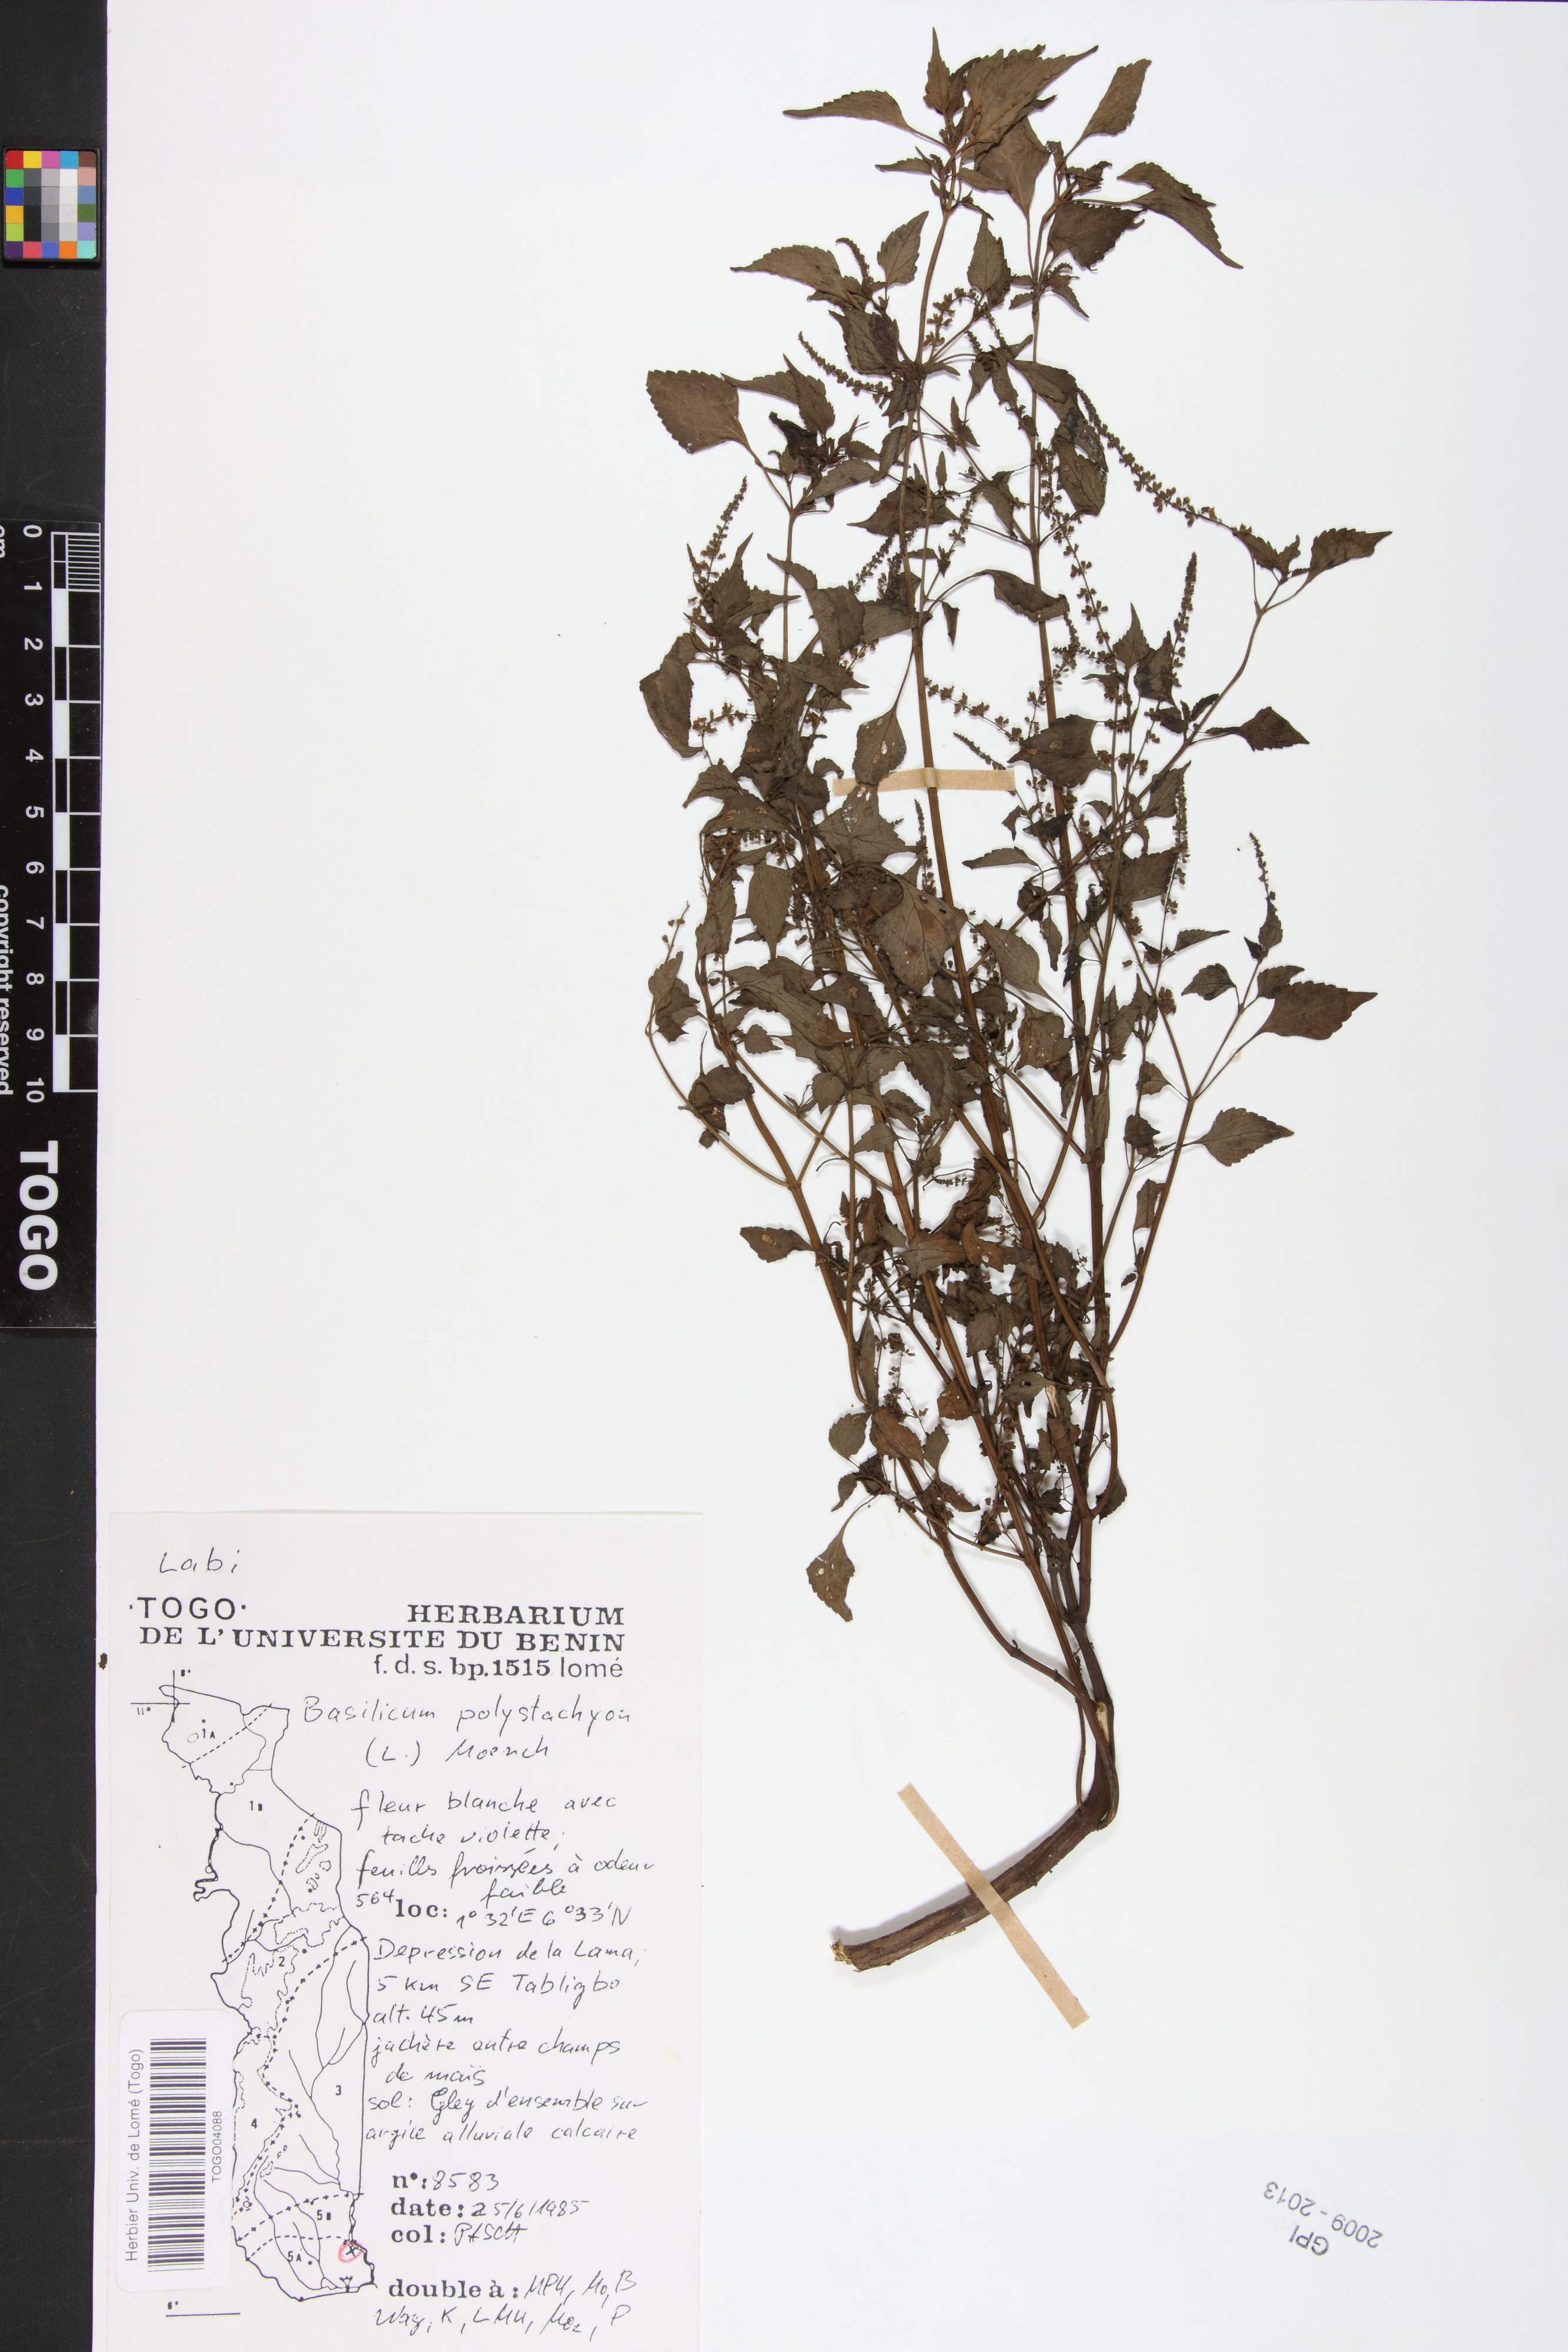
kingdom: Plantae
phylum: Tracheophyta
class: Magnoliopsida
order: Lamiales
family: Lamiaceae
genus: Basilicum
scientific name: Basilicum polystachyon
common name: Musk-basil
